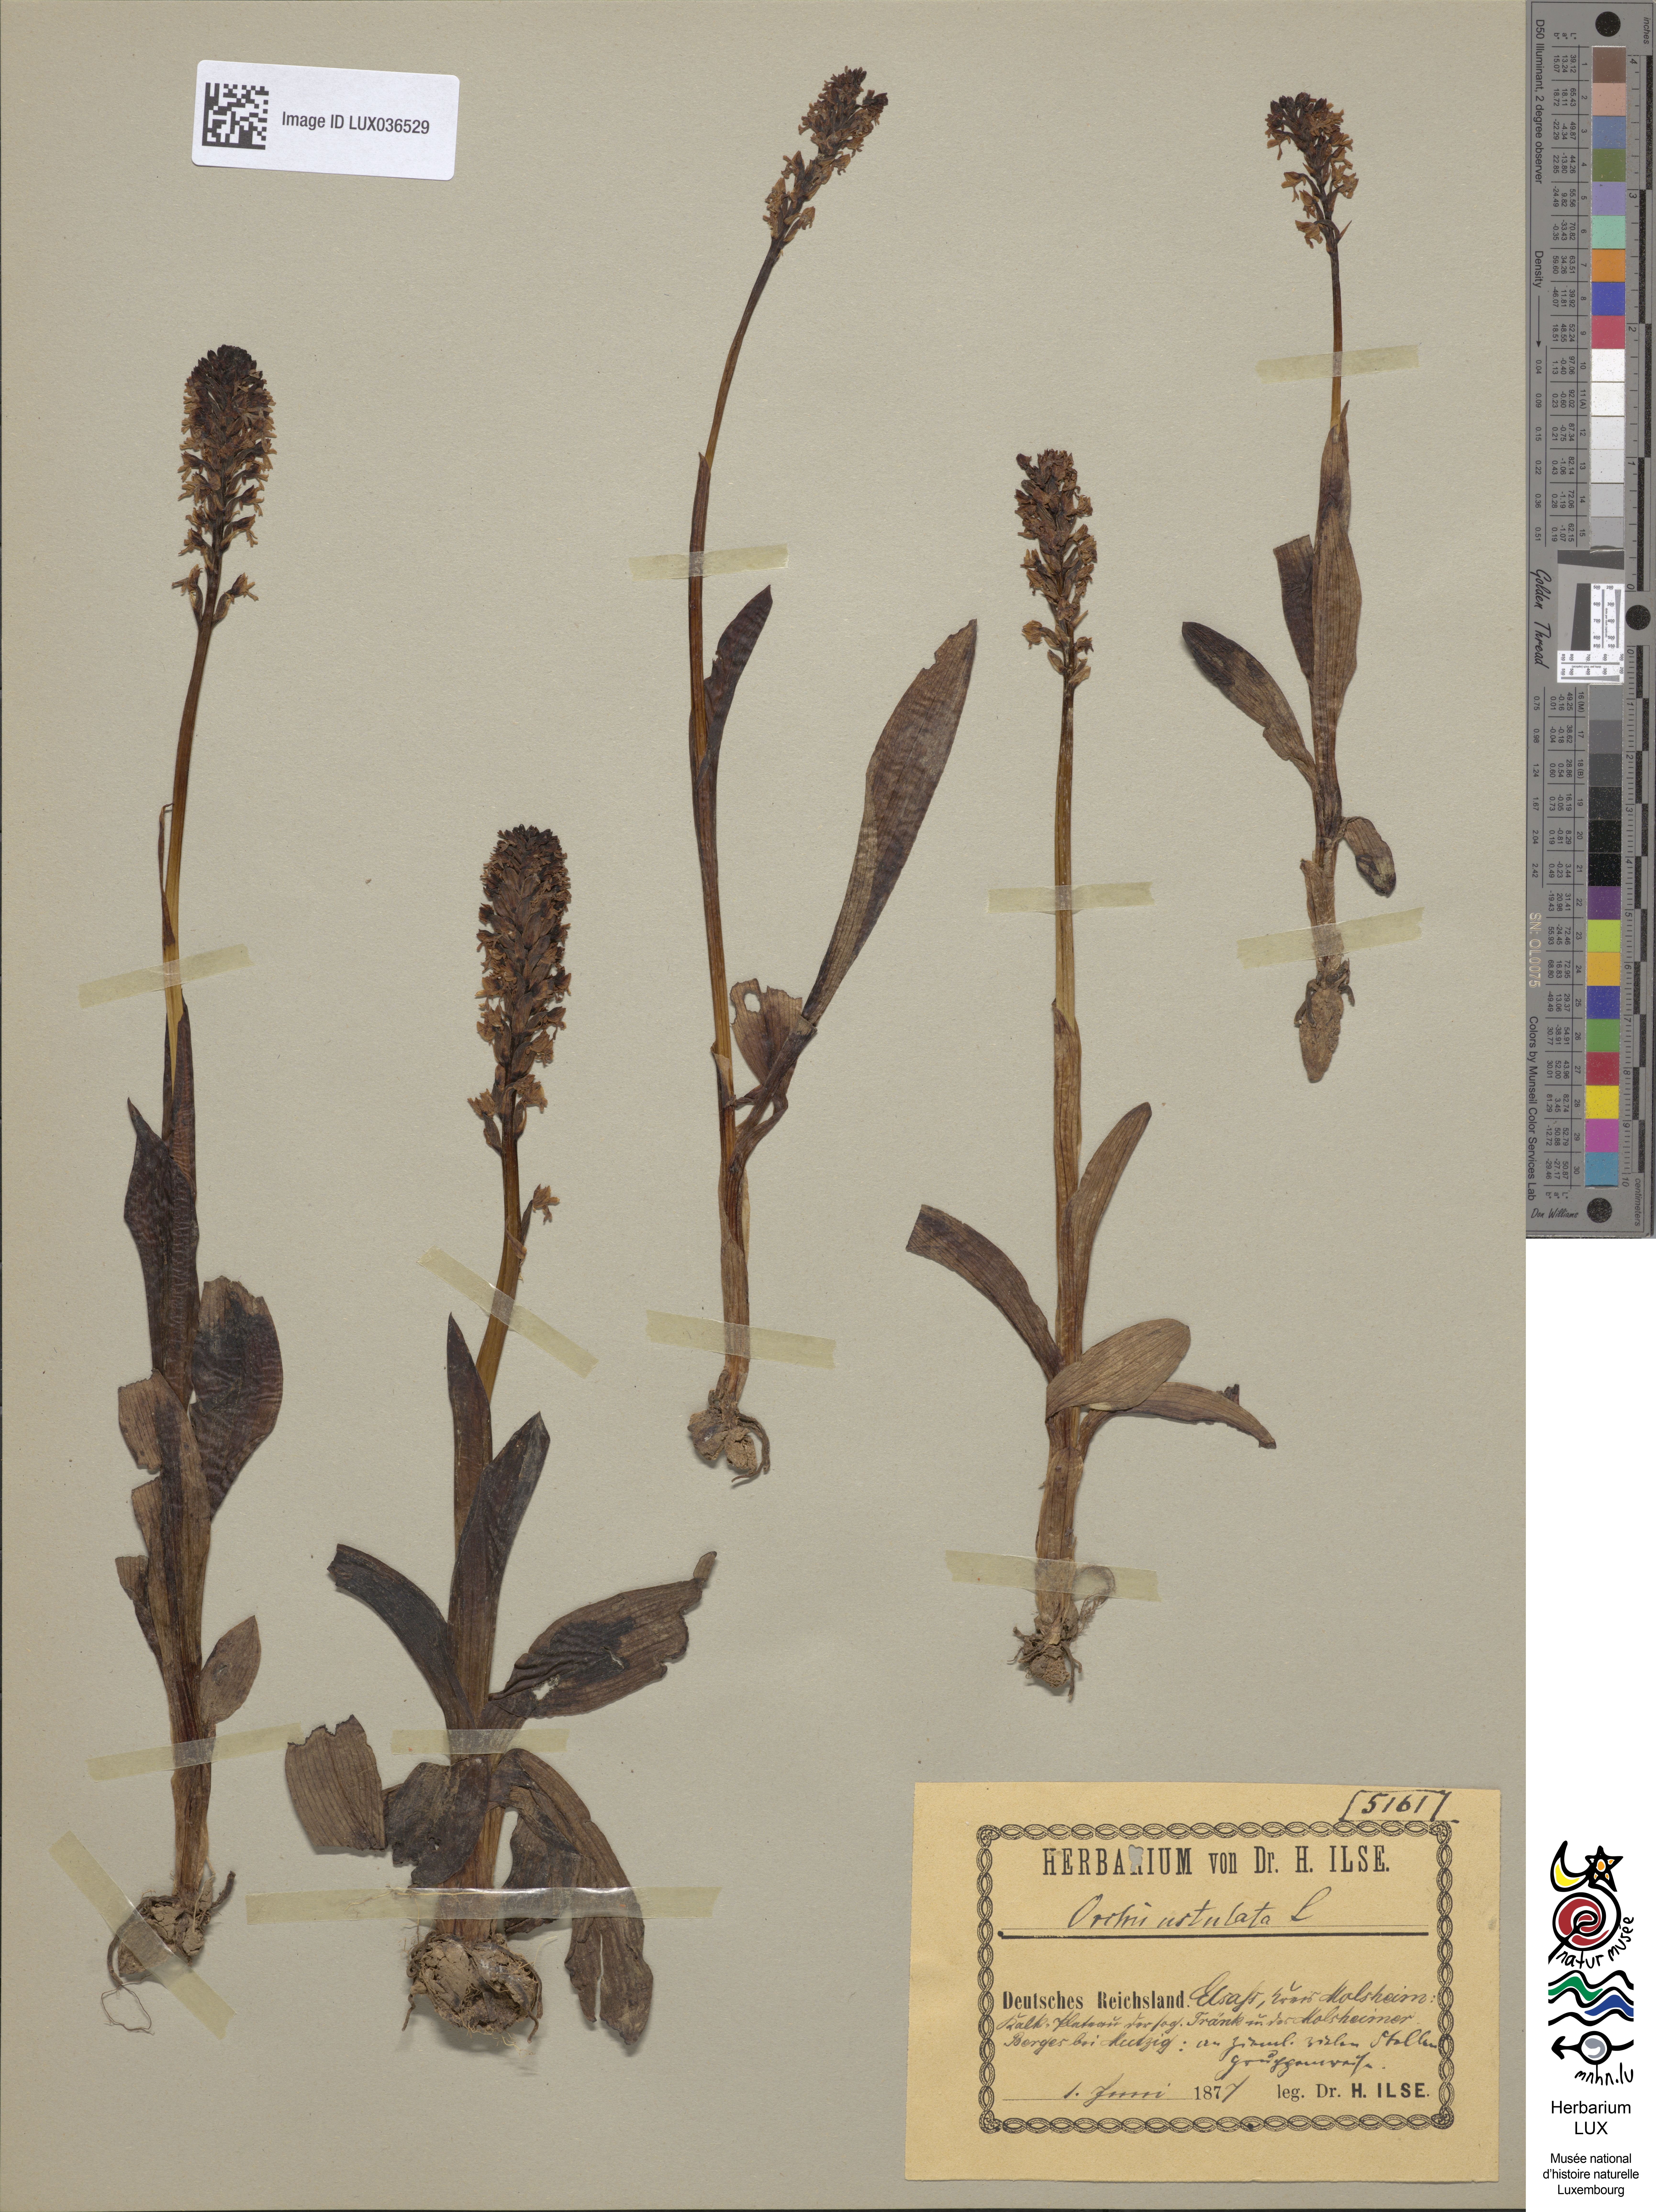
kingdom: Plantae
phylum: Tracheophyta
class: Liliopsida
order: Asparagales
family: Orchidaceae
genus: Neotinea
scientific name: Neotinea ustulata
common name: Burnt orchid
